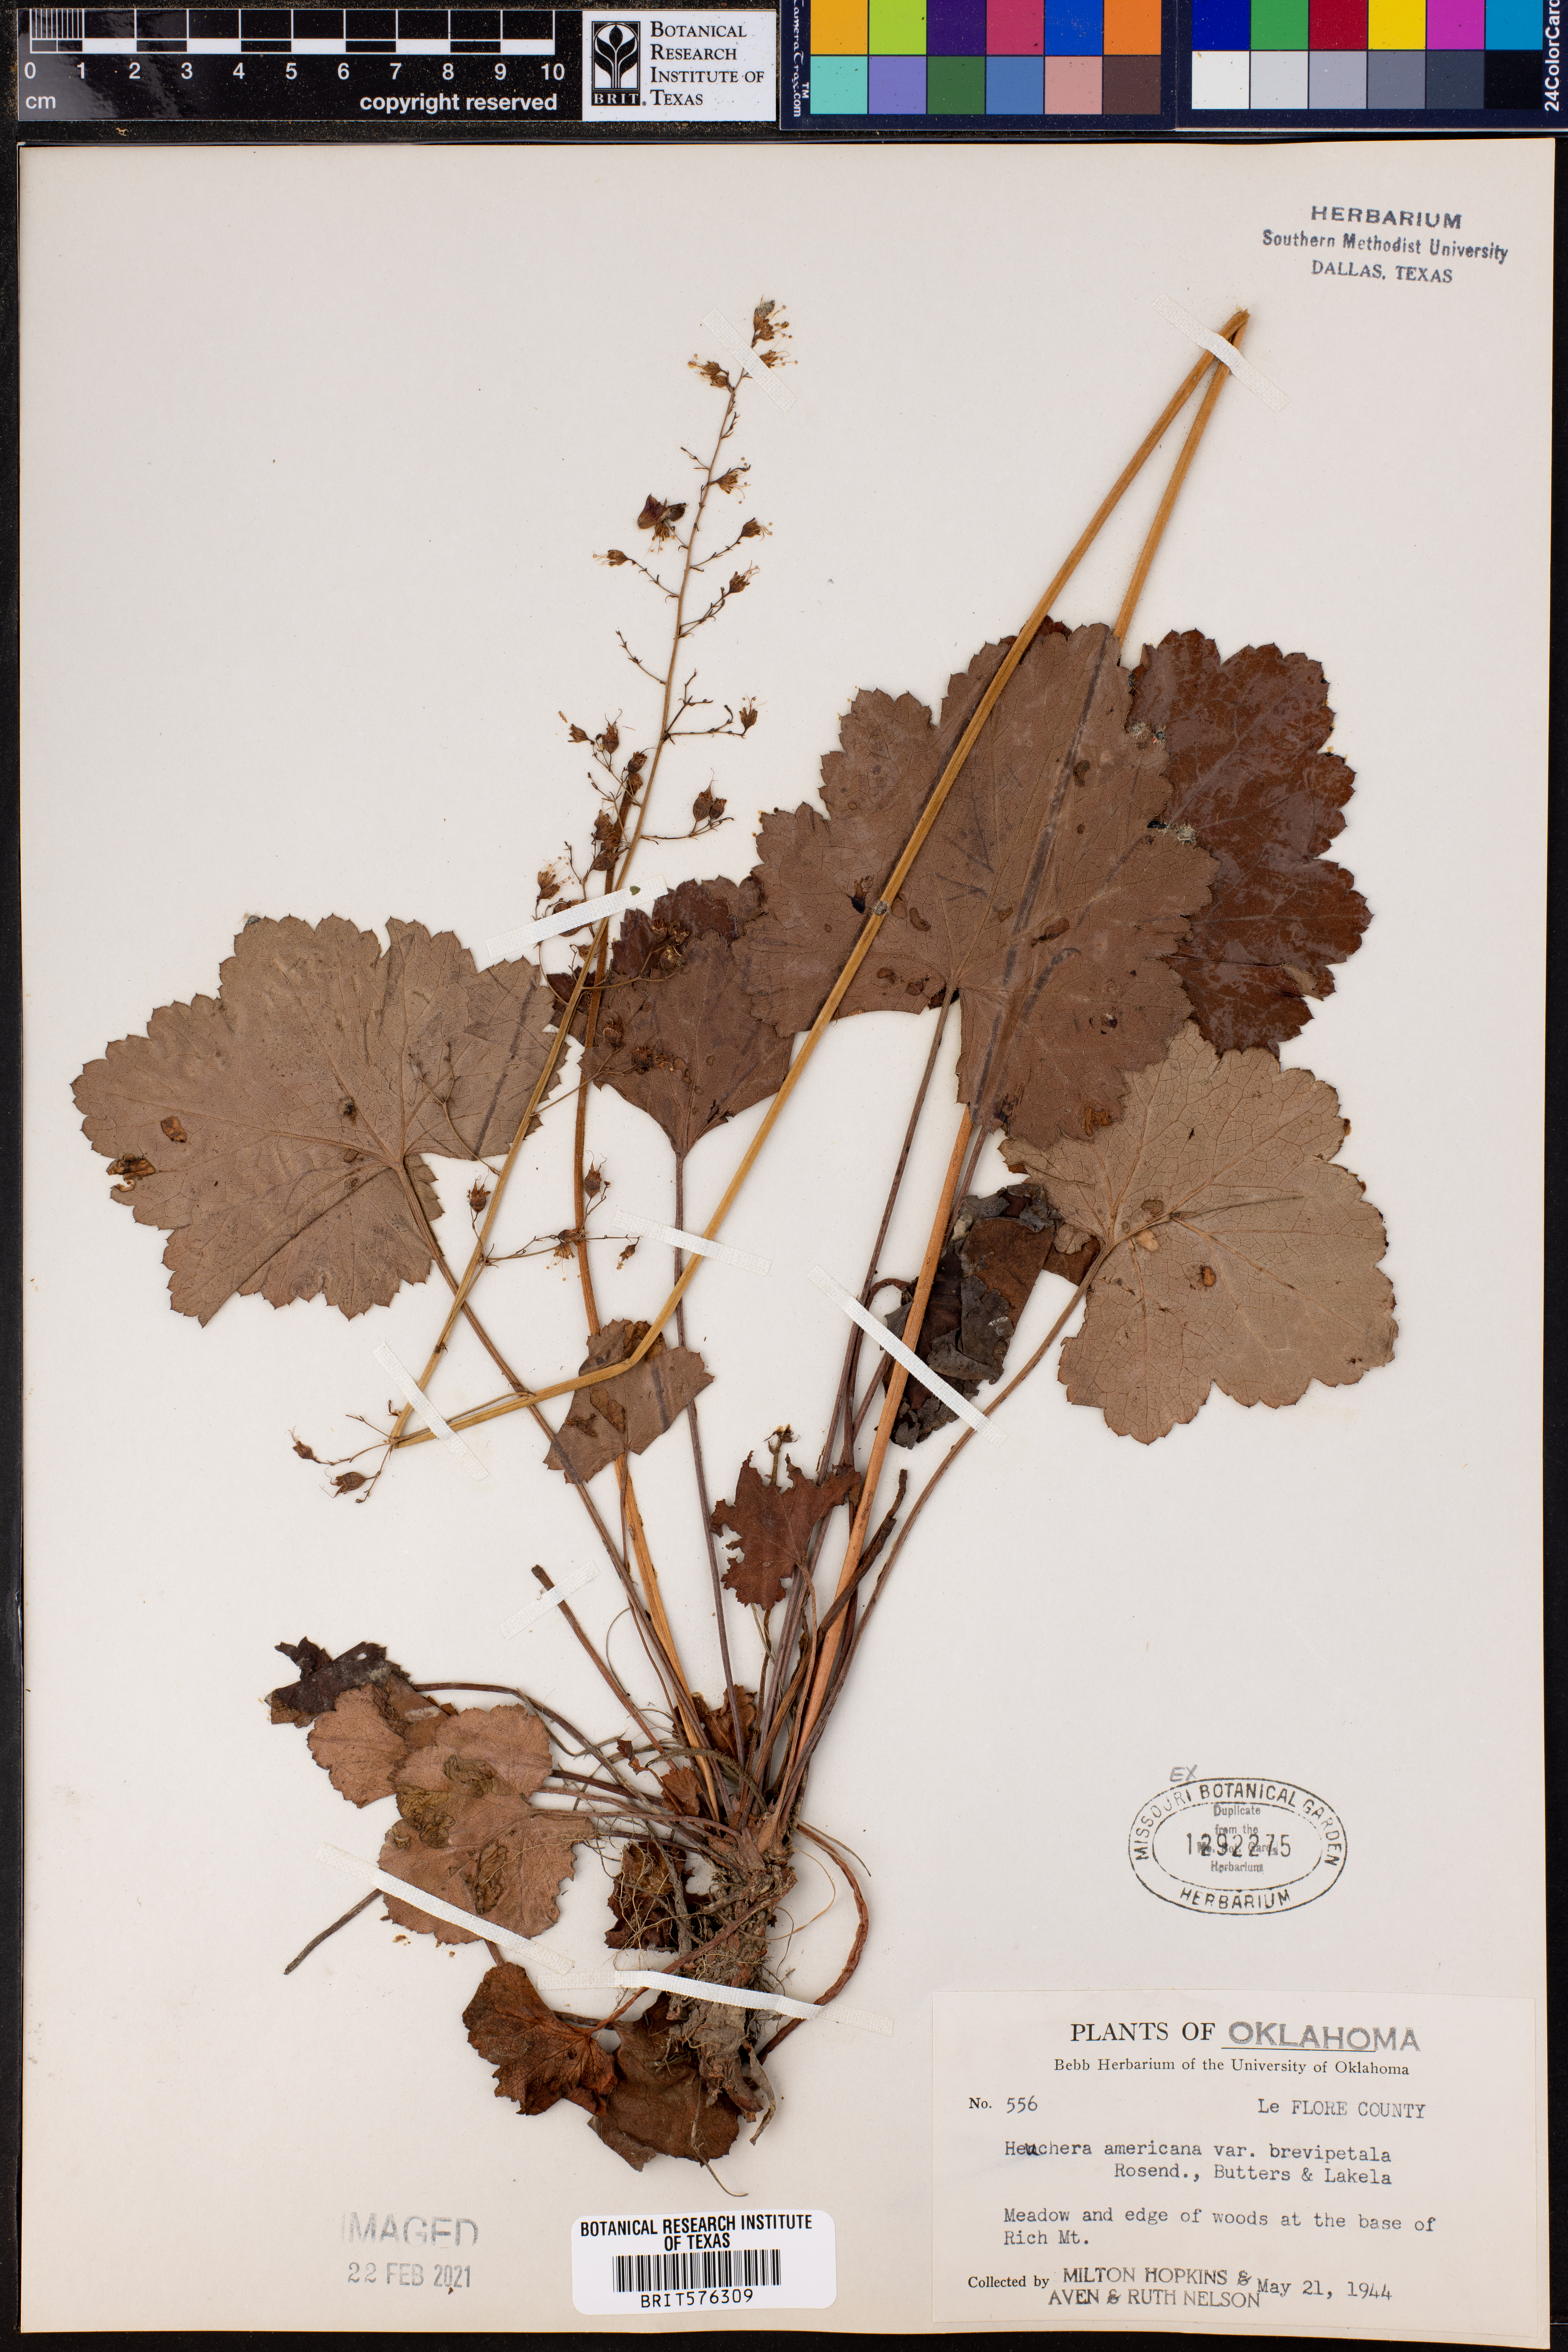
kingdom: Plantae
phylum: Tracheophyta
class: Magnoliopsida
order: Saxifragales
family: Saxifragaceae
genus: Heuchera
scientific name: Heuchera americana
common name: Alumroot
